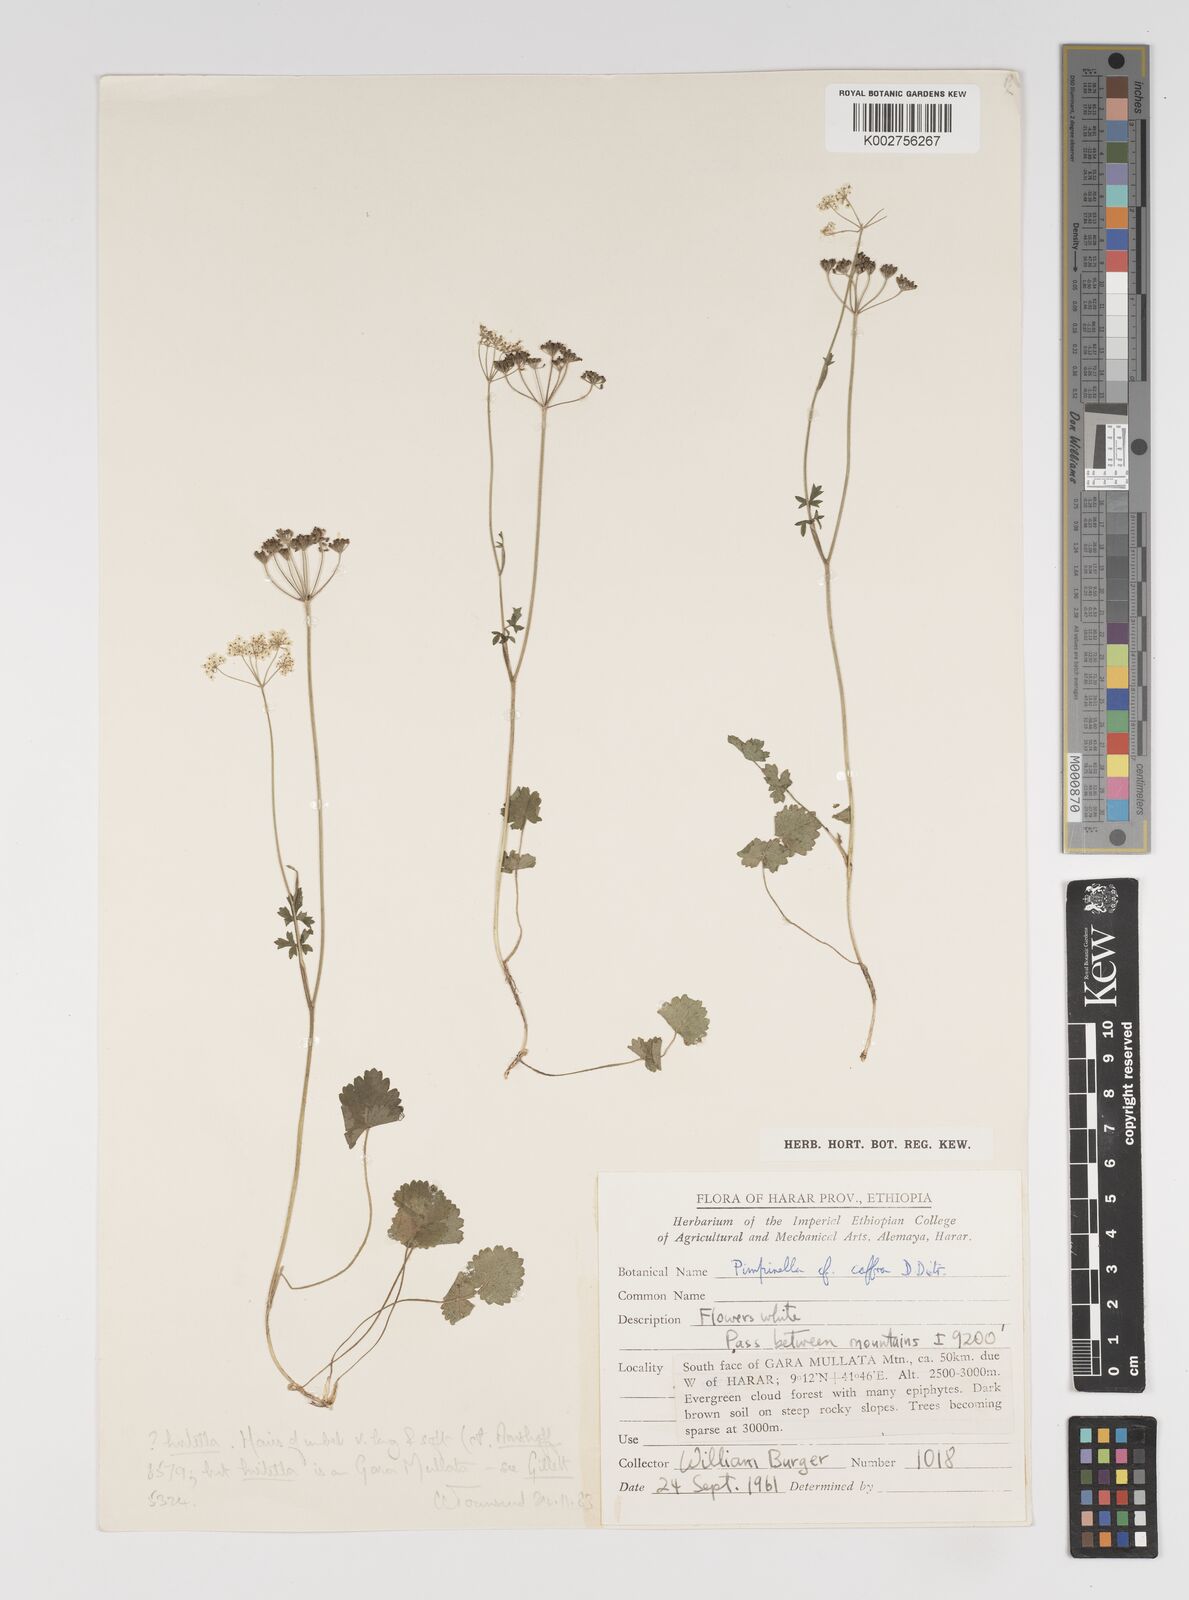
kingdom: Plantae
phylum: Tracheophyta
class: Magnoliopsida
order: Apiales
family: Apiaceae
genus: Pimpinella
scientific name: Pimpinella hirtella
